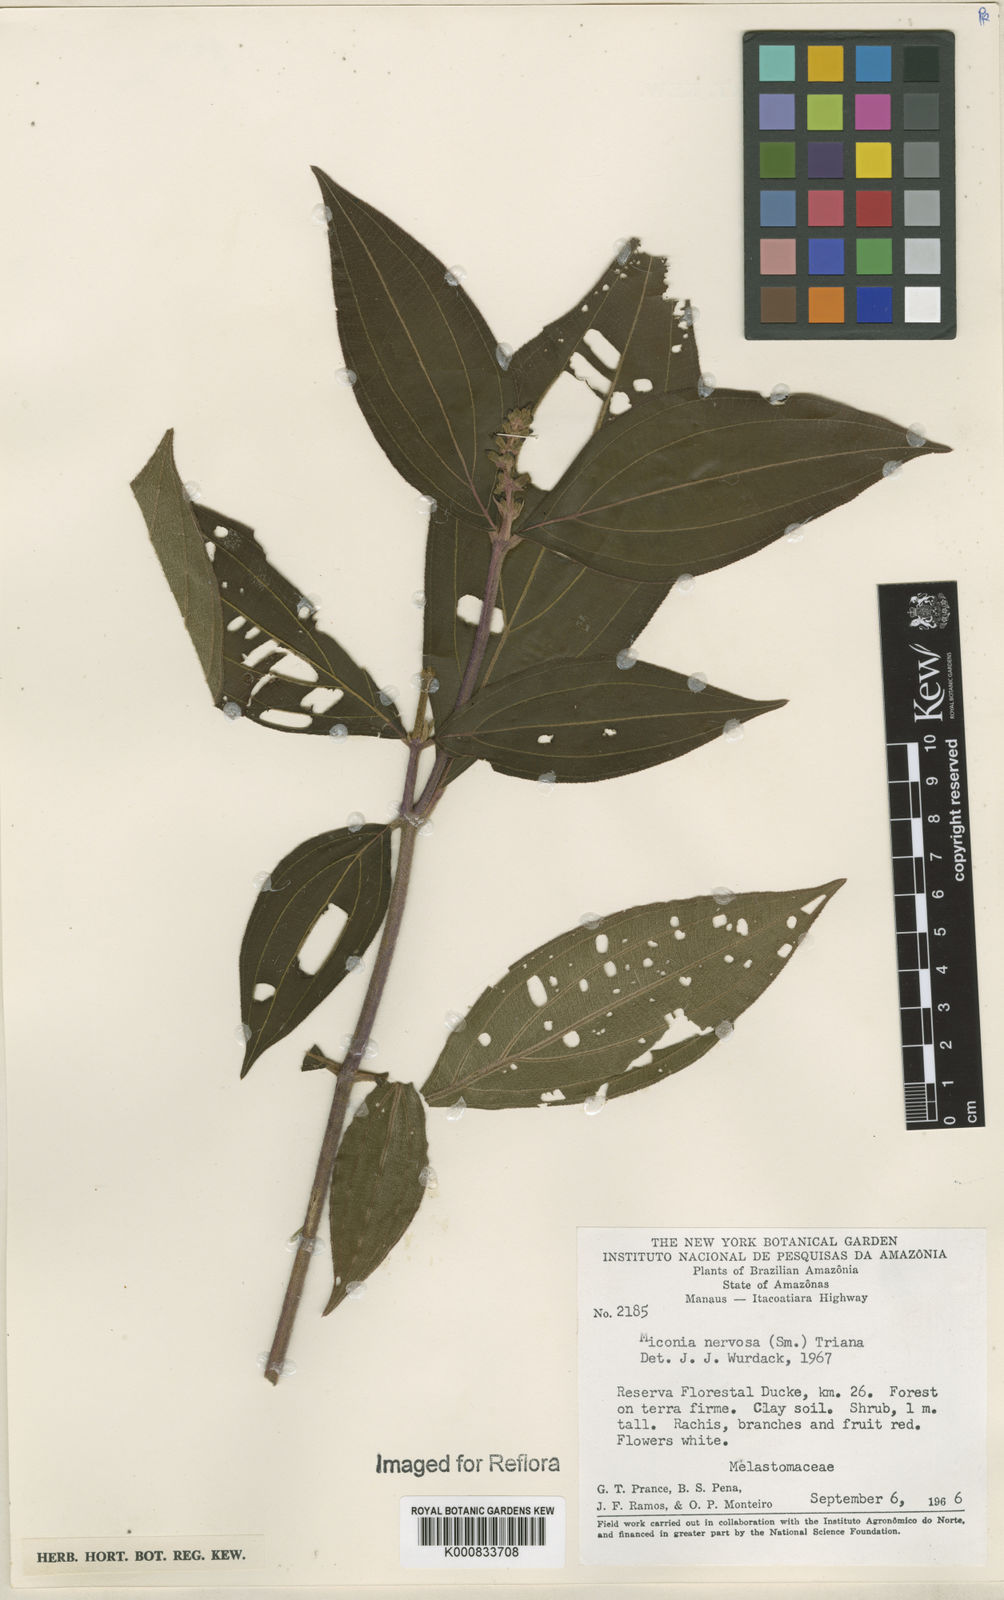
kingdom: Plantae
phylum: Tracheophyta
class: Magnoliopsida
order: Myrtales
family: Melastomataceae
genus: Miconia
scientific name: Miconia nervosa
